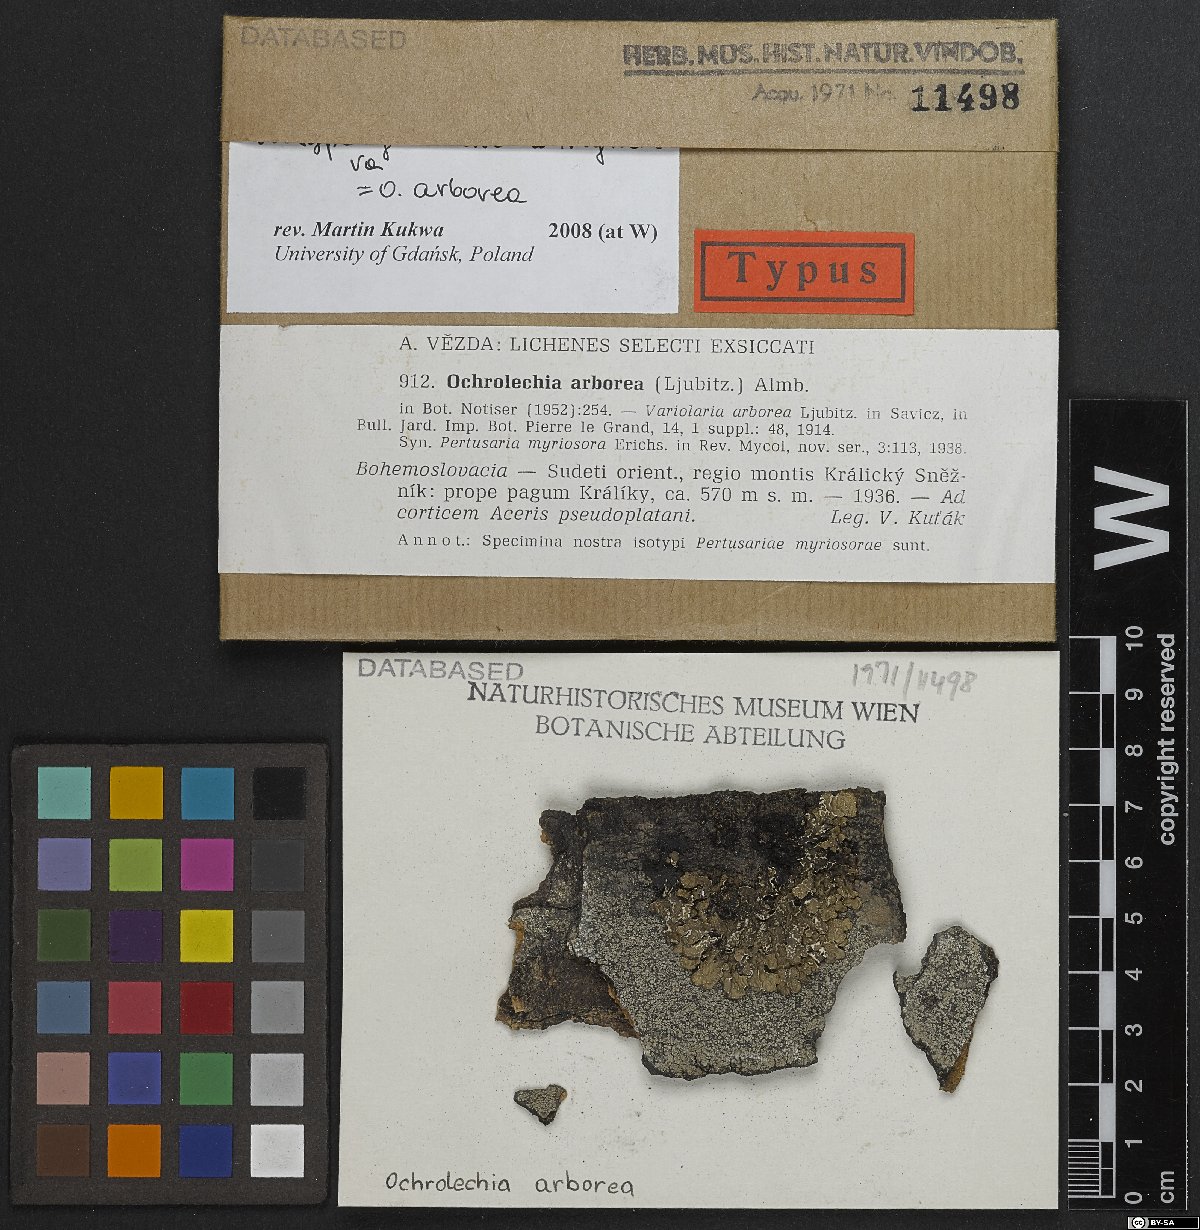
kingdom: Fungi
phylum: Ascomycota
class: Lecanoromycetes
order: Pertusariales
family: Ochrolechiaceae
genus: Ochrolechia
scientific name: Ochrolechia arborea
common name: Tree saucer lichen
